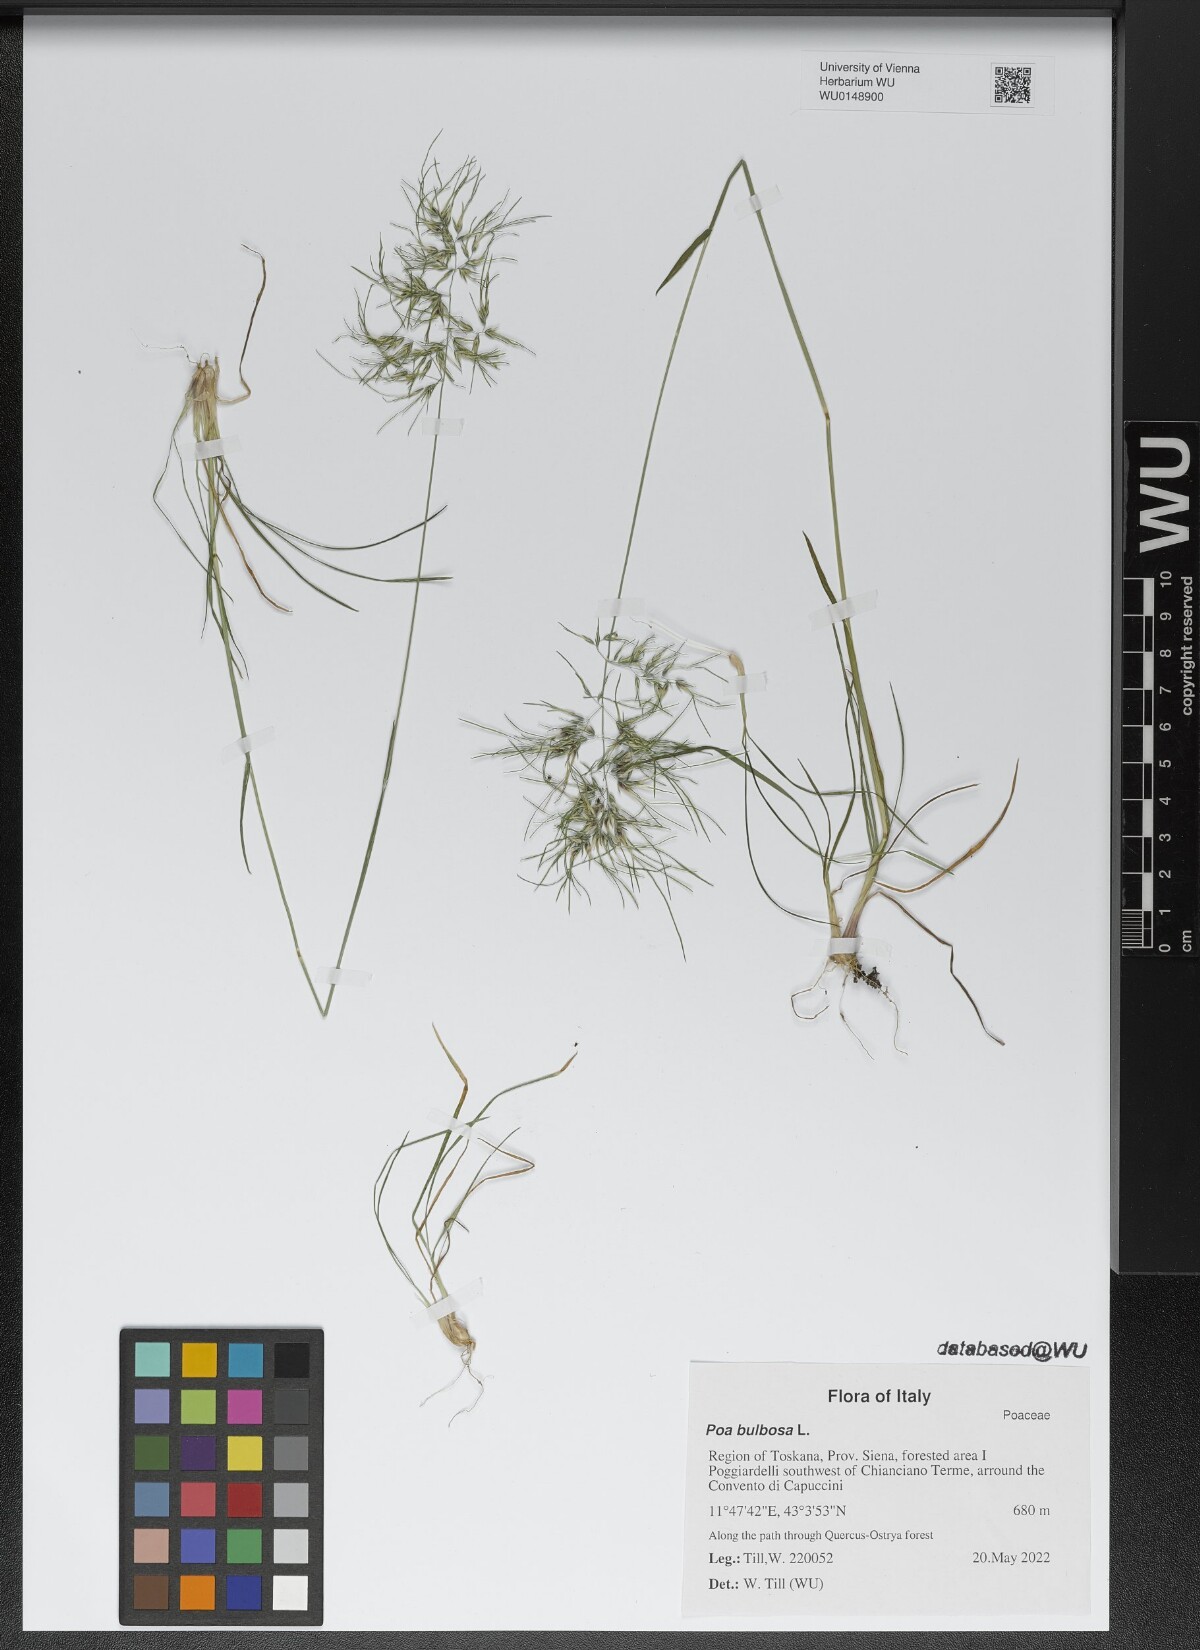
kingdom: Plantae
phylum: Tracheophyta
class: Liliopsida
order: Poales
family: Poaceae
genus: Poa
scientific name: Poa bulbosa
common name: Bulbous bluegrass
